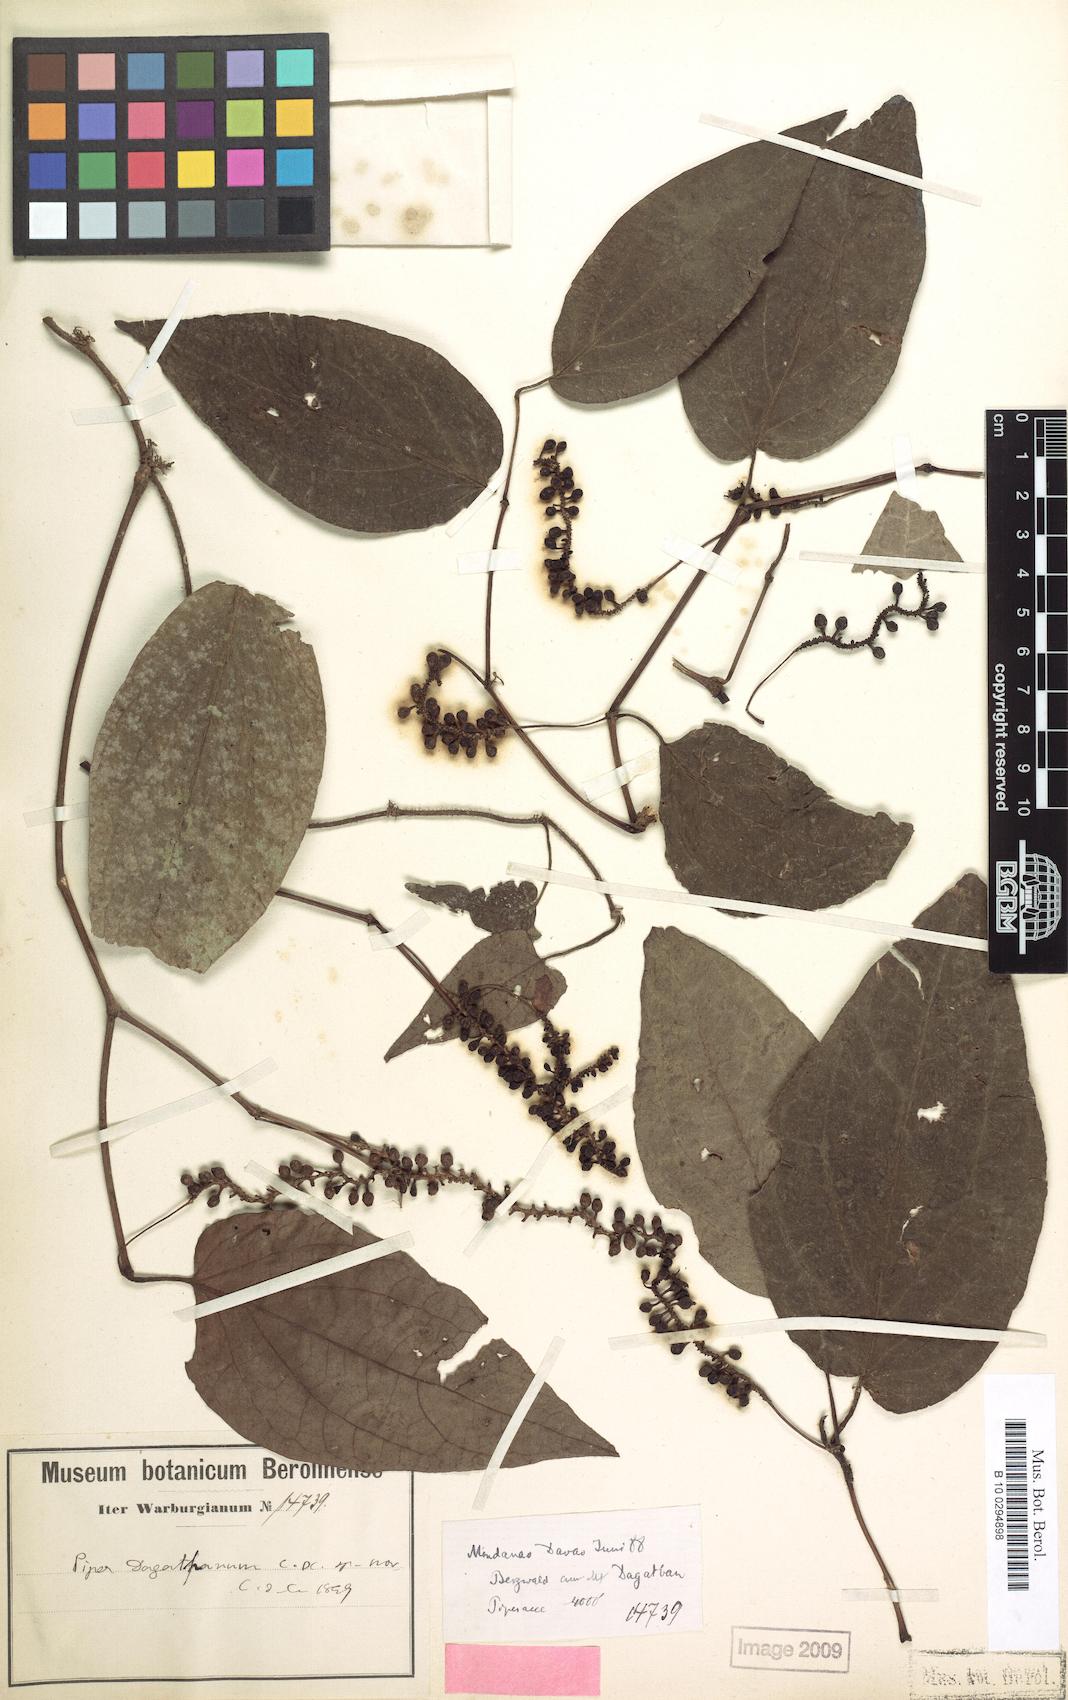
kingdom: Plantae
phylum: Tracheophyta
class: Magnoliopsida
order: Piperales
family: Piperaceae
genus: Piper
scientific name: Piper lanatum
